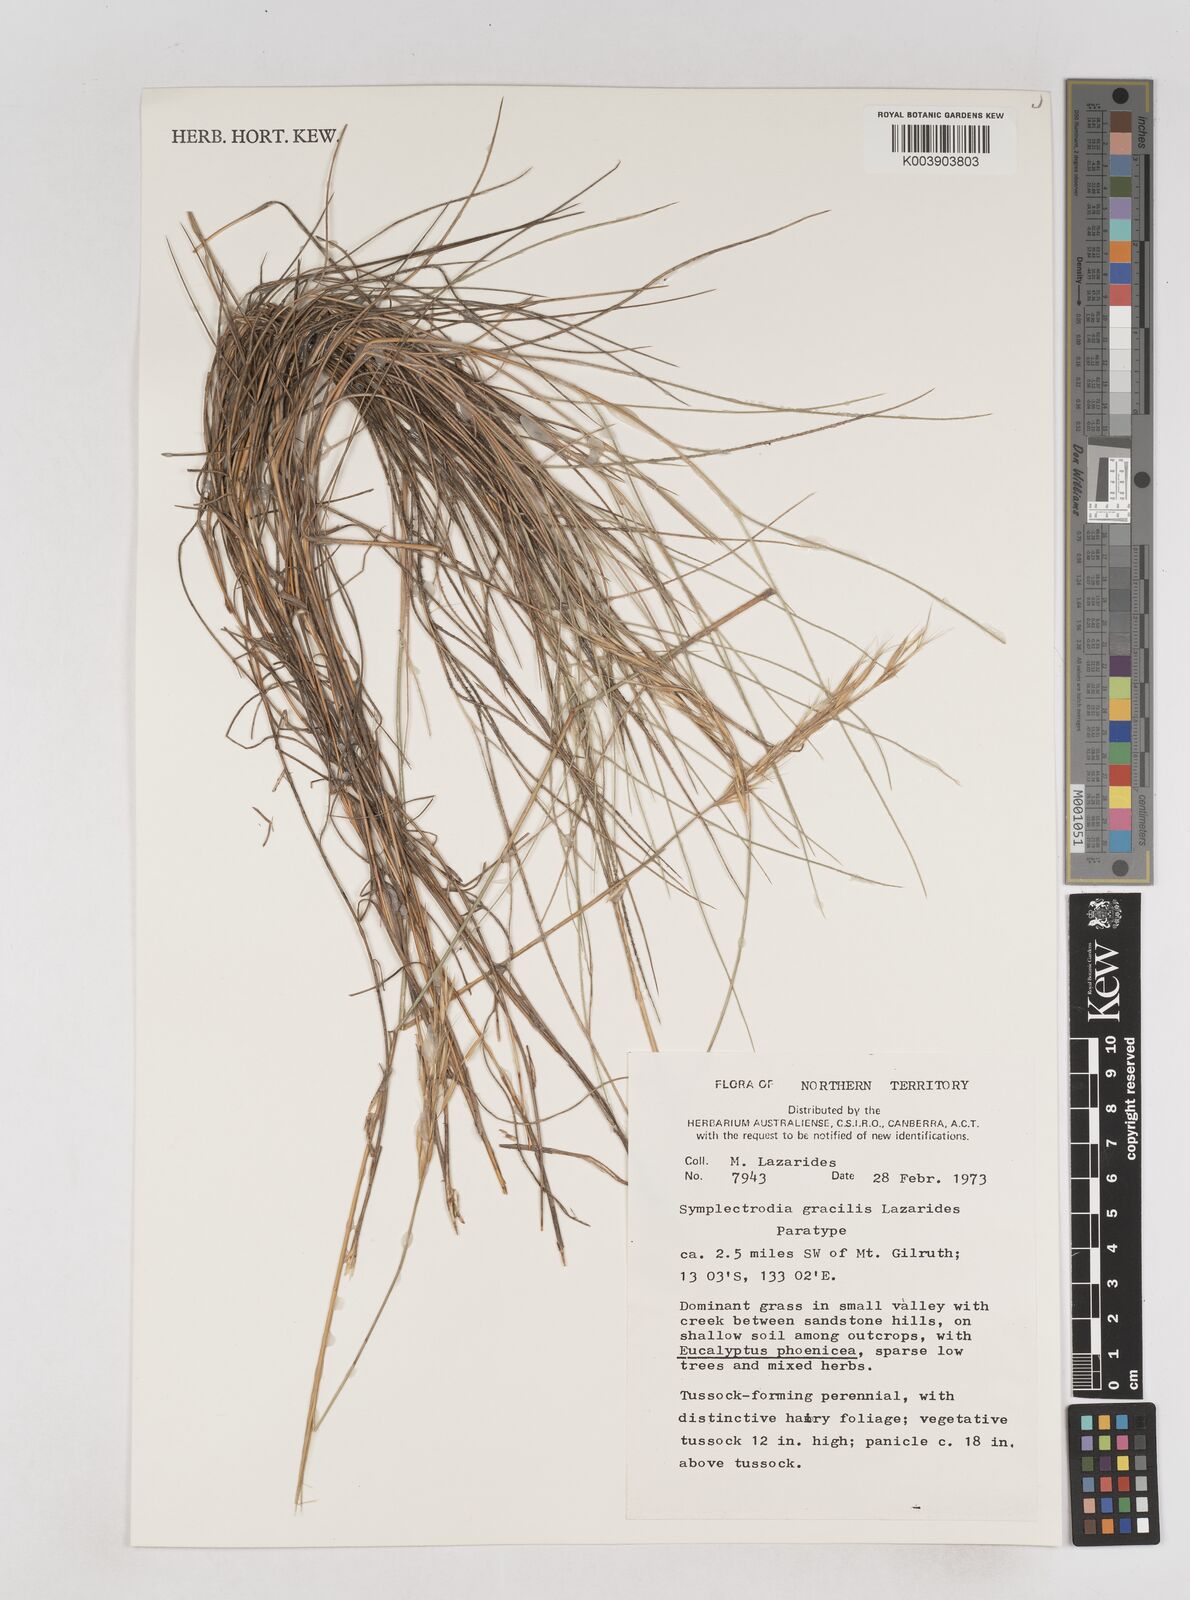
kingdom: Plantae
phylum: Tracheophyta
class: Liliopsida
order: Poales
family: Poaceae
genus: Triodia
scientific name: Triodia gracilis
